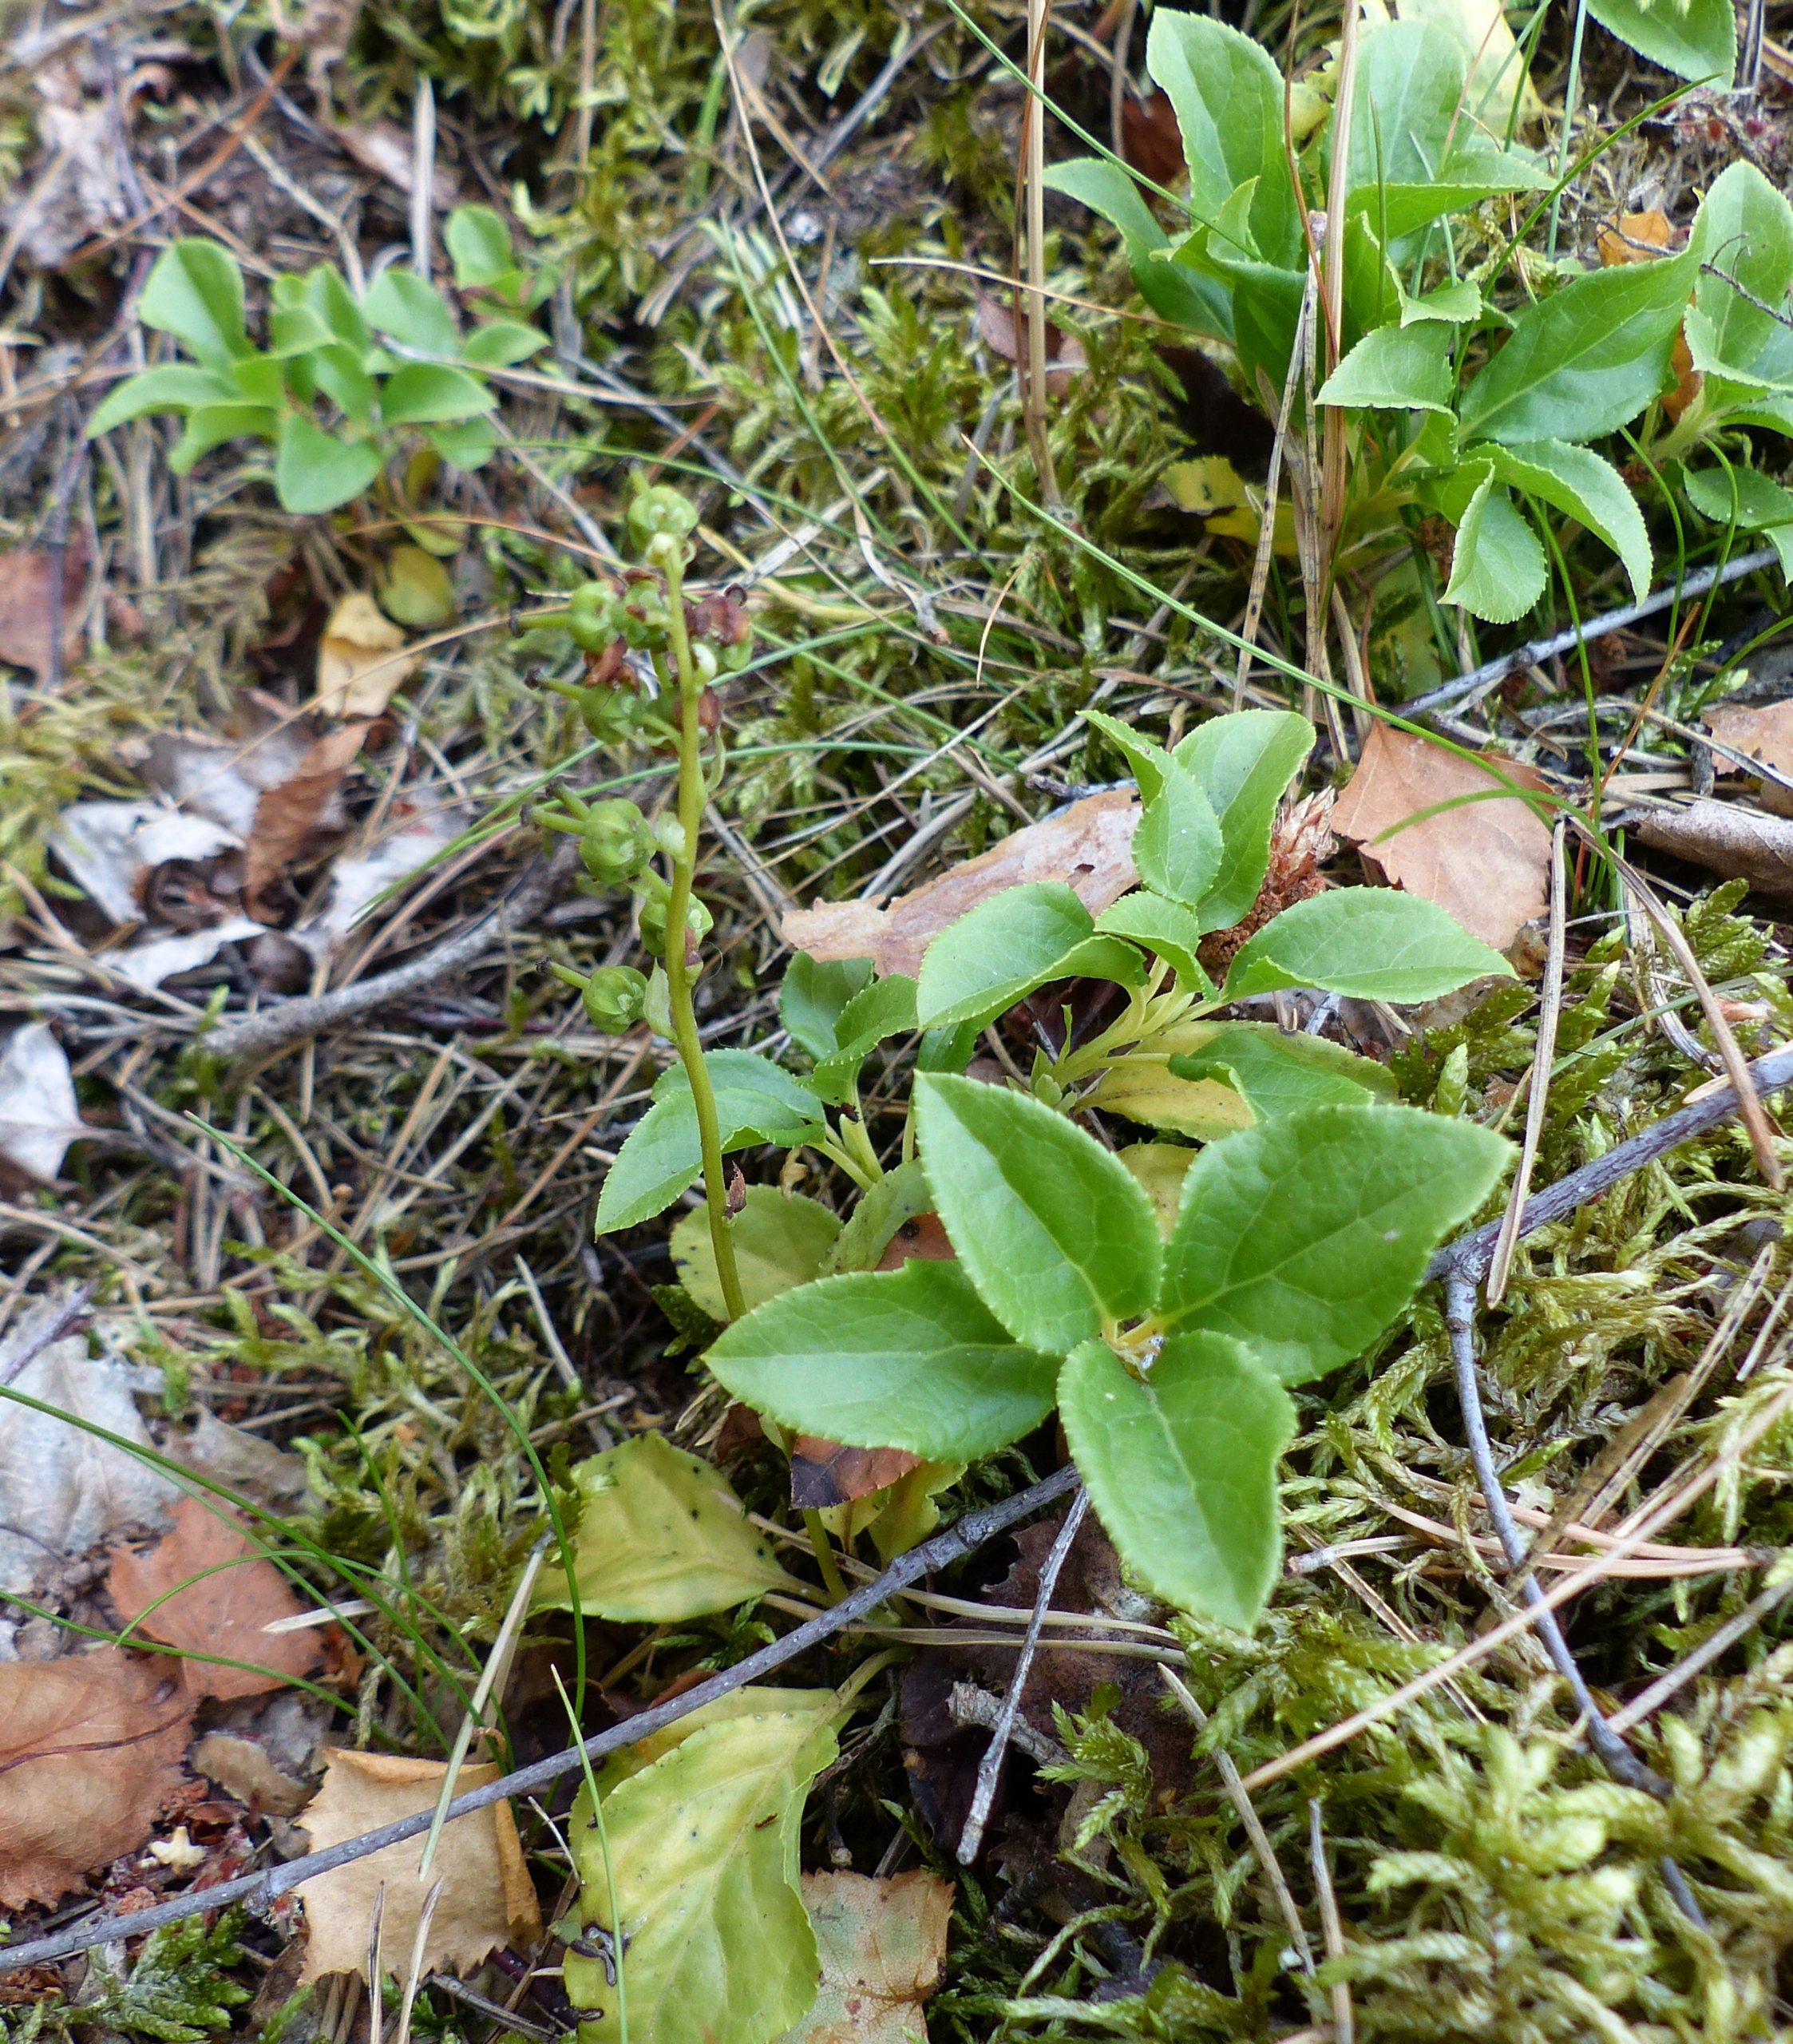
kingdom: Plantae
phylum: Tracheophyta
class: Magnoliopsida
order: Ericales
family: Ericaceae
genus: Orthilia
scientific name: Orthilia secunda
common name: Ensidig vintergrøn
